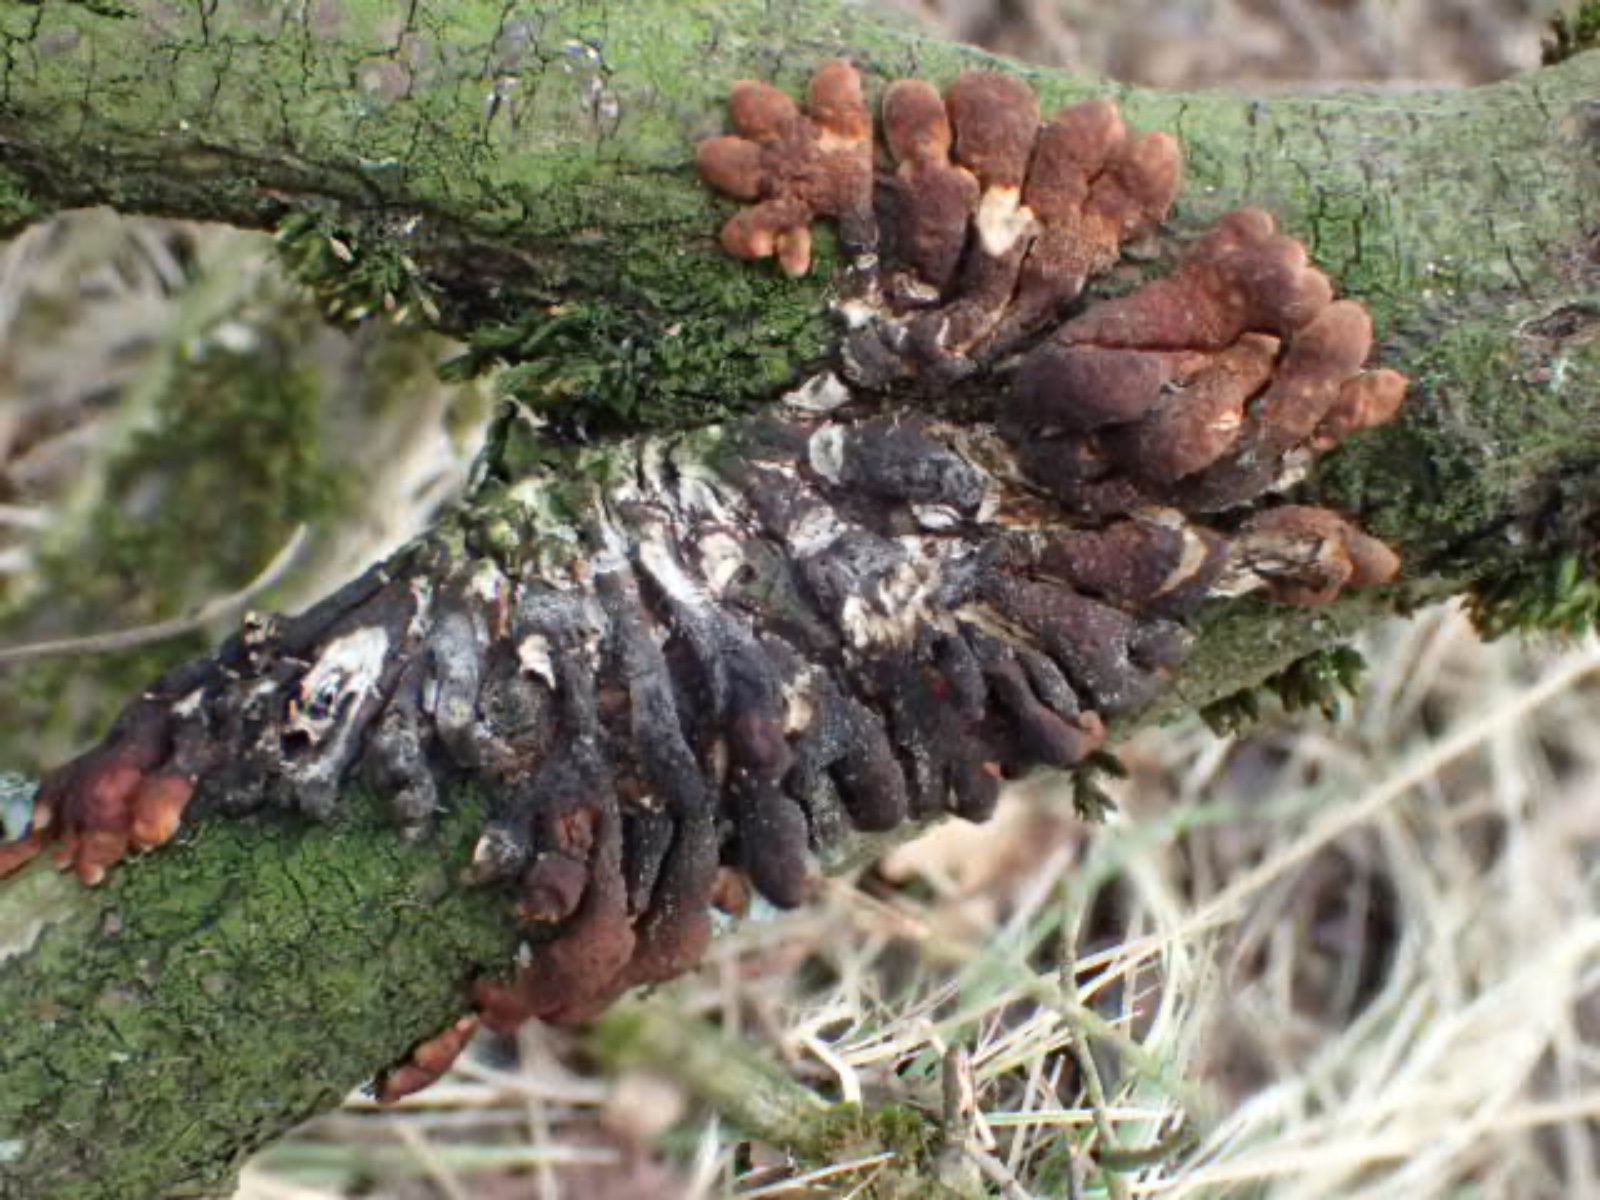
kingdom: Fungi
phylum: Ascomycota
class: Sordariomycetes
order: Hypocreales
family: Hypocreaceae
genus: Hypocreopsis
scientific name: Hypocreopsis lichenoides
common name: pilfinger
